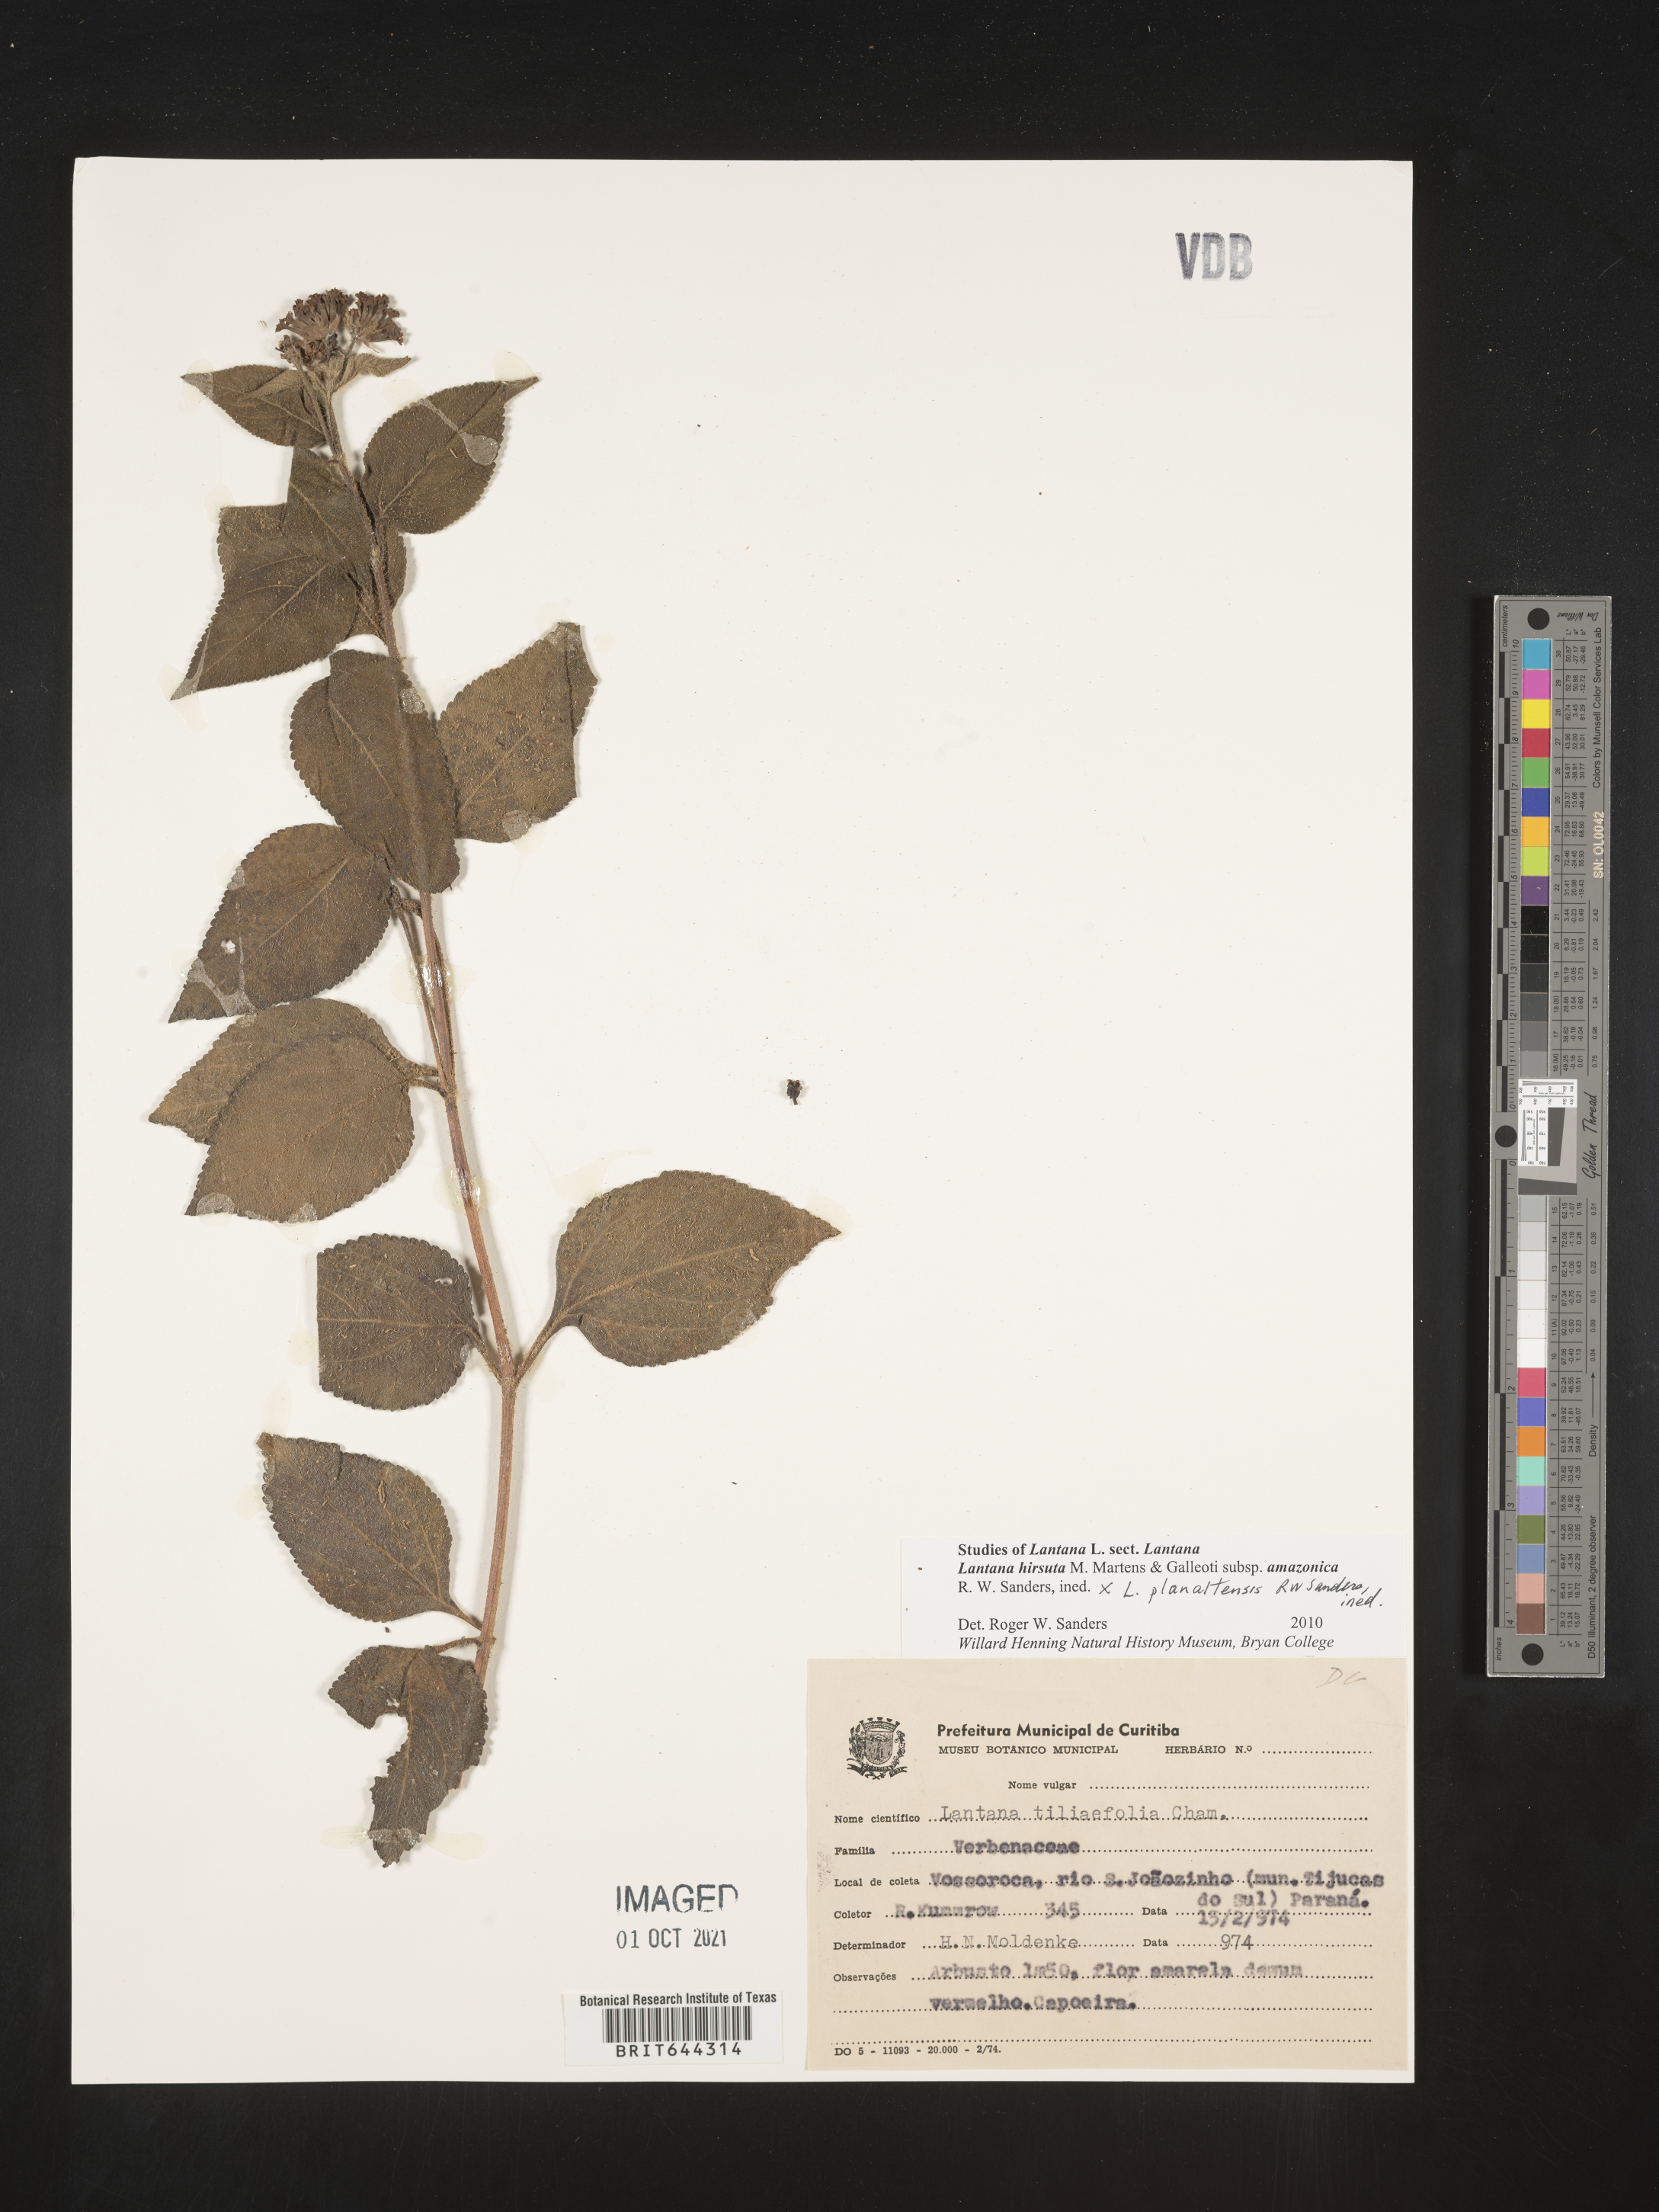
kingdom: Plantae
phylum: Tracheophyta
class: Magnoliopsida
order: Lamiales
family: Verbenaceae
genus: Lantana
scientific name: Lantana
